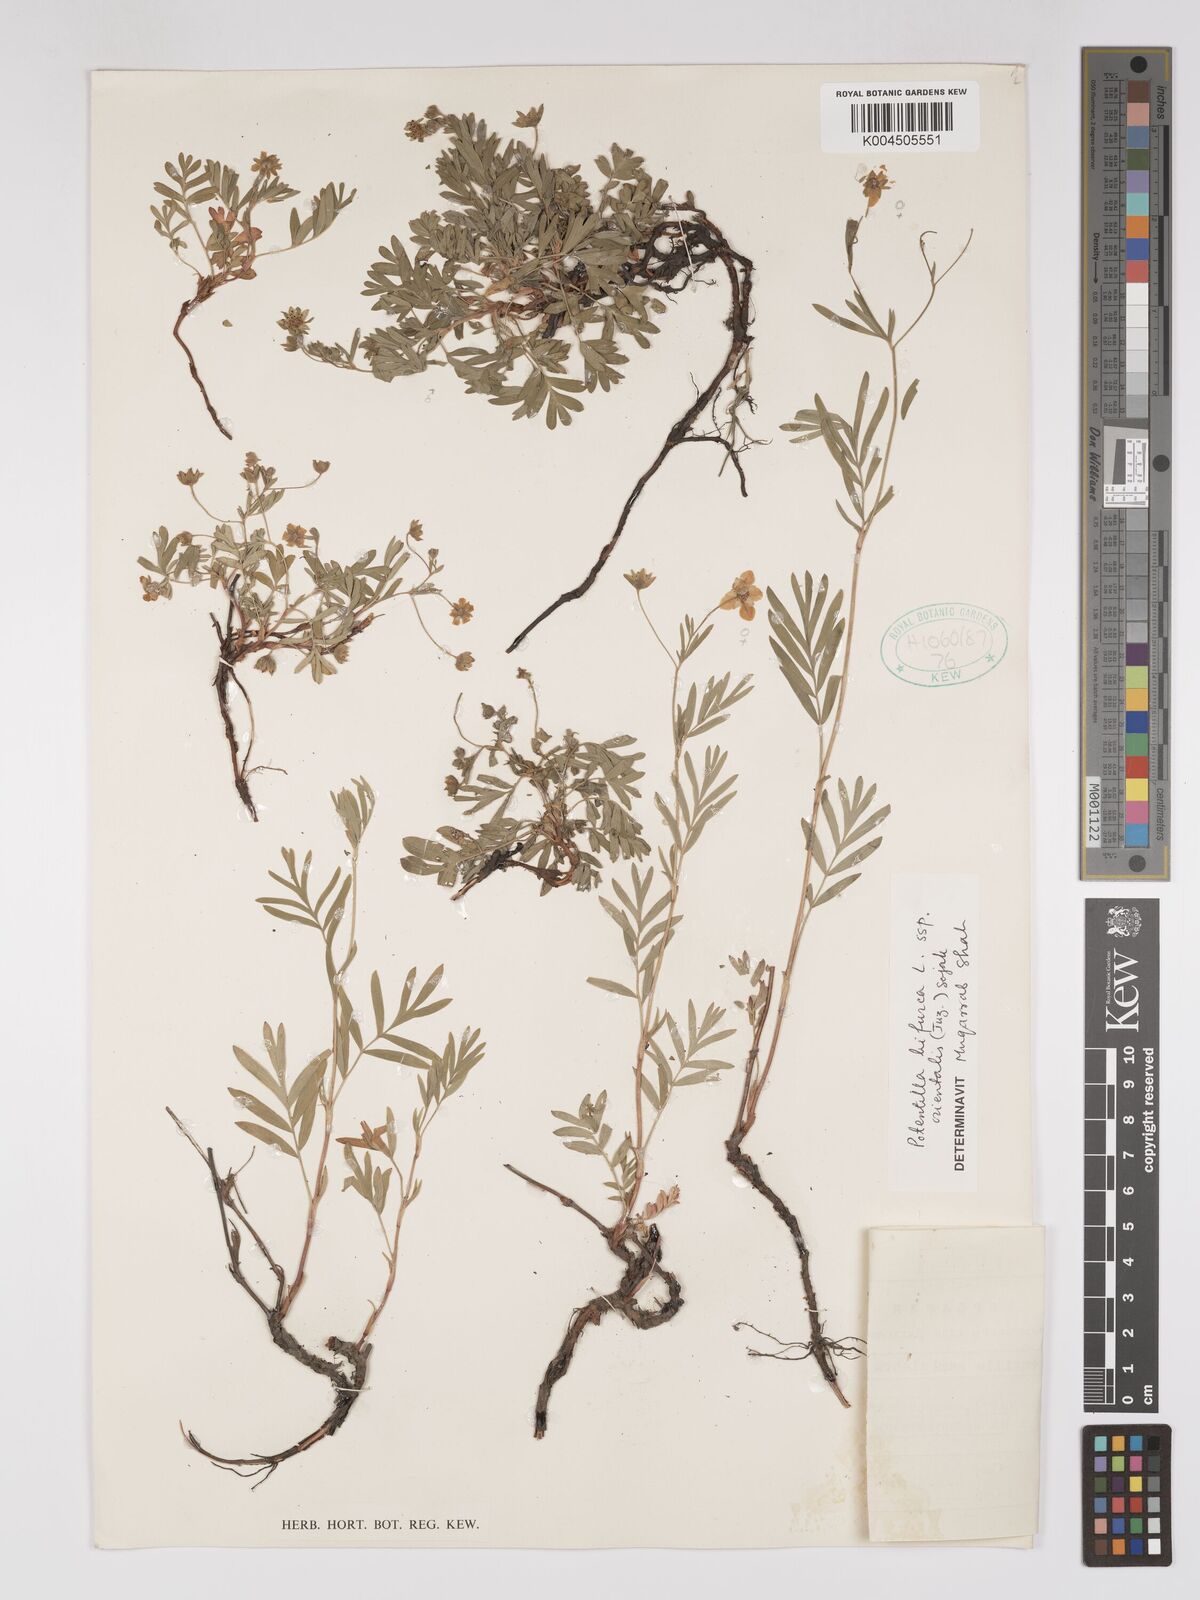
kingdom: Plantae
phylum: Tracheophyta
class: Magnoliopsida
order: Rosales
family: Rosaceae
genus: Sibbaldianthe
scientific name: Sibbaldianthe orientalis
